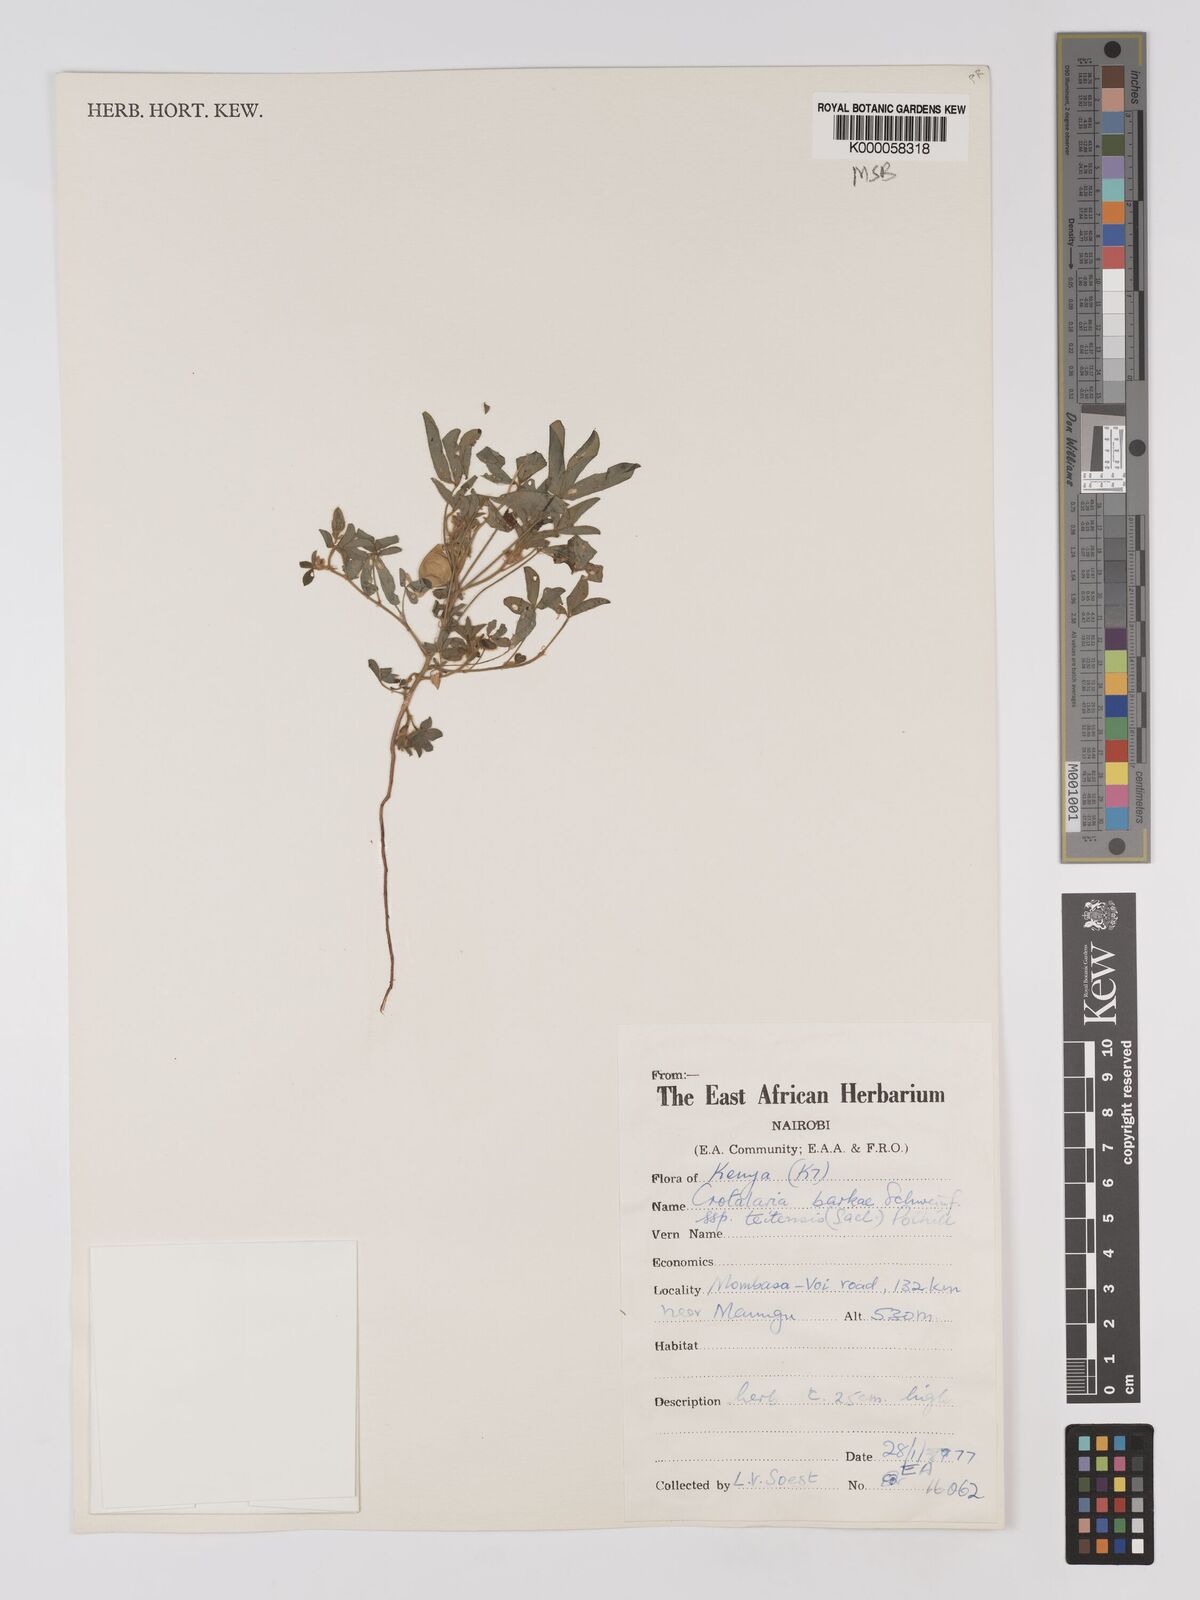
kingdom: Plantae
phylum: Tracheophyta
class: Magnoliopsida
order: Fabales
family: Fabaceae
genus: Crotalaria
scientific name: Crotalaria barkae
